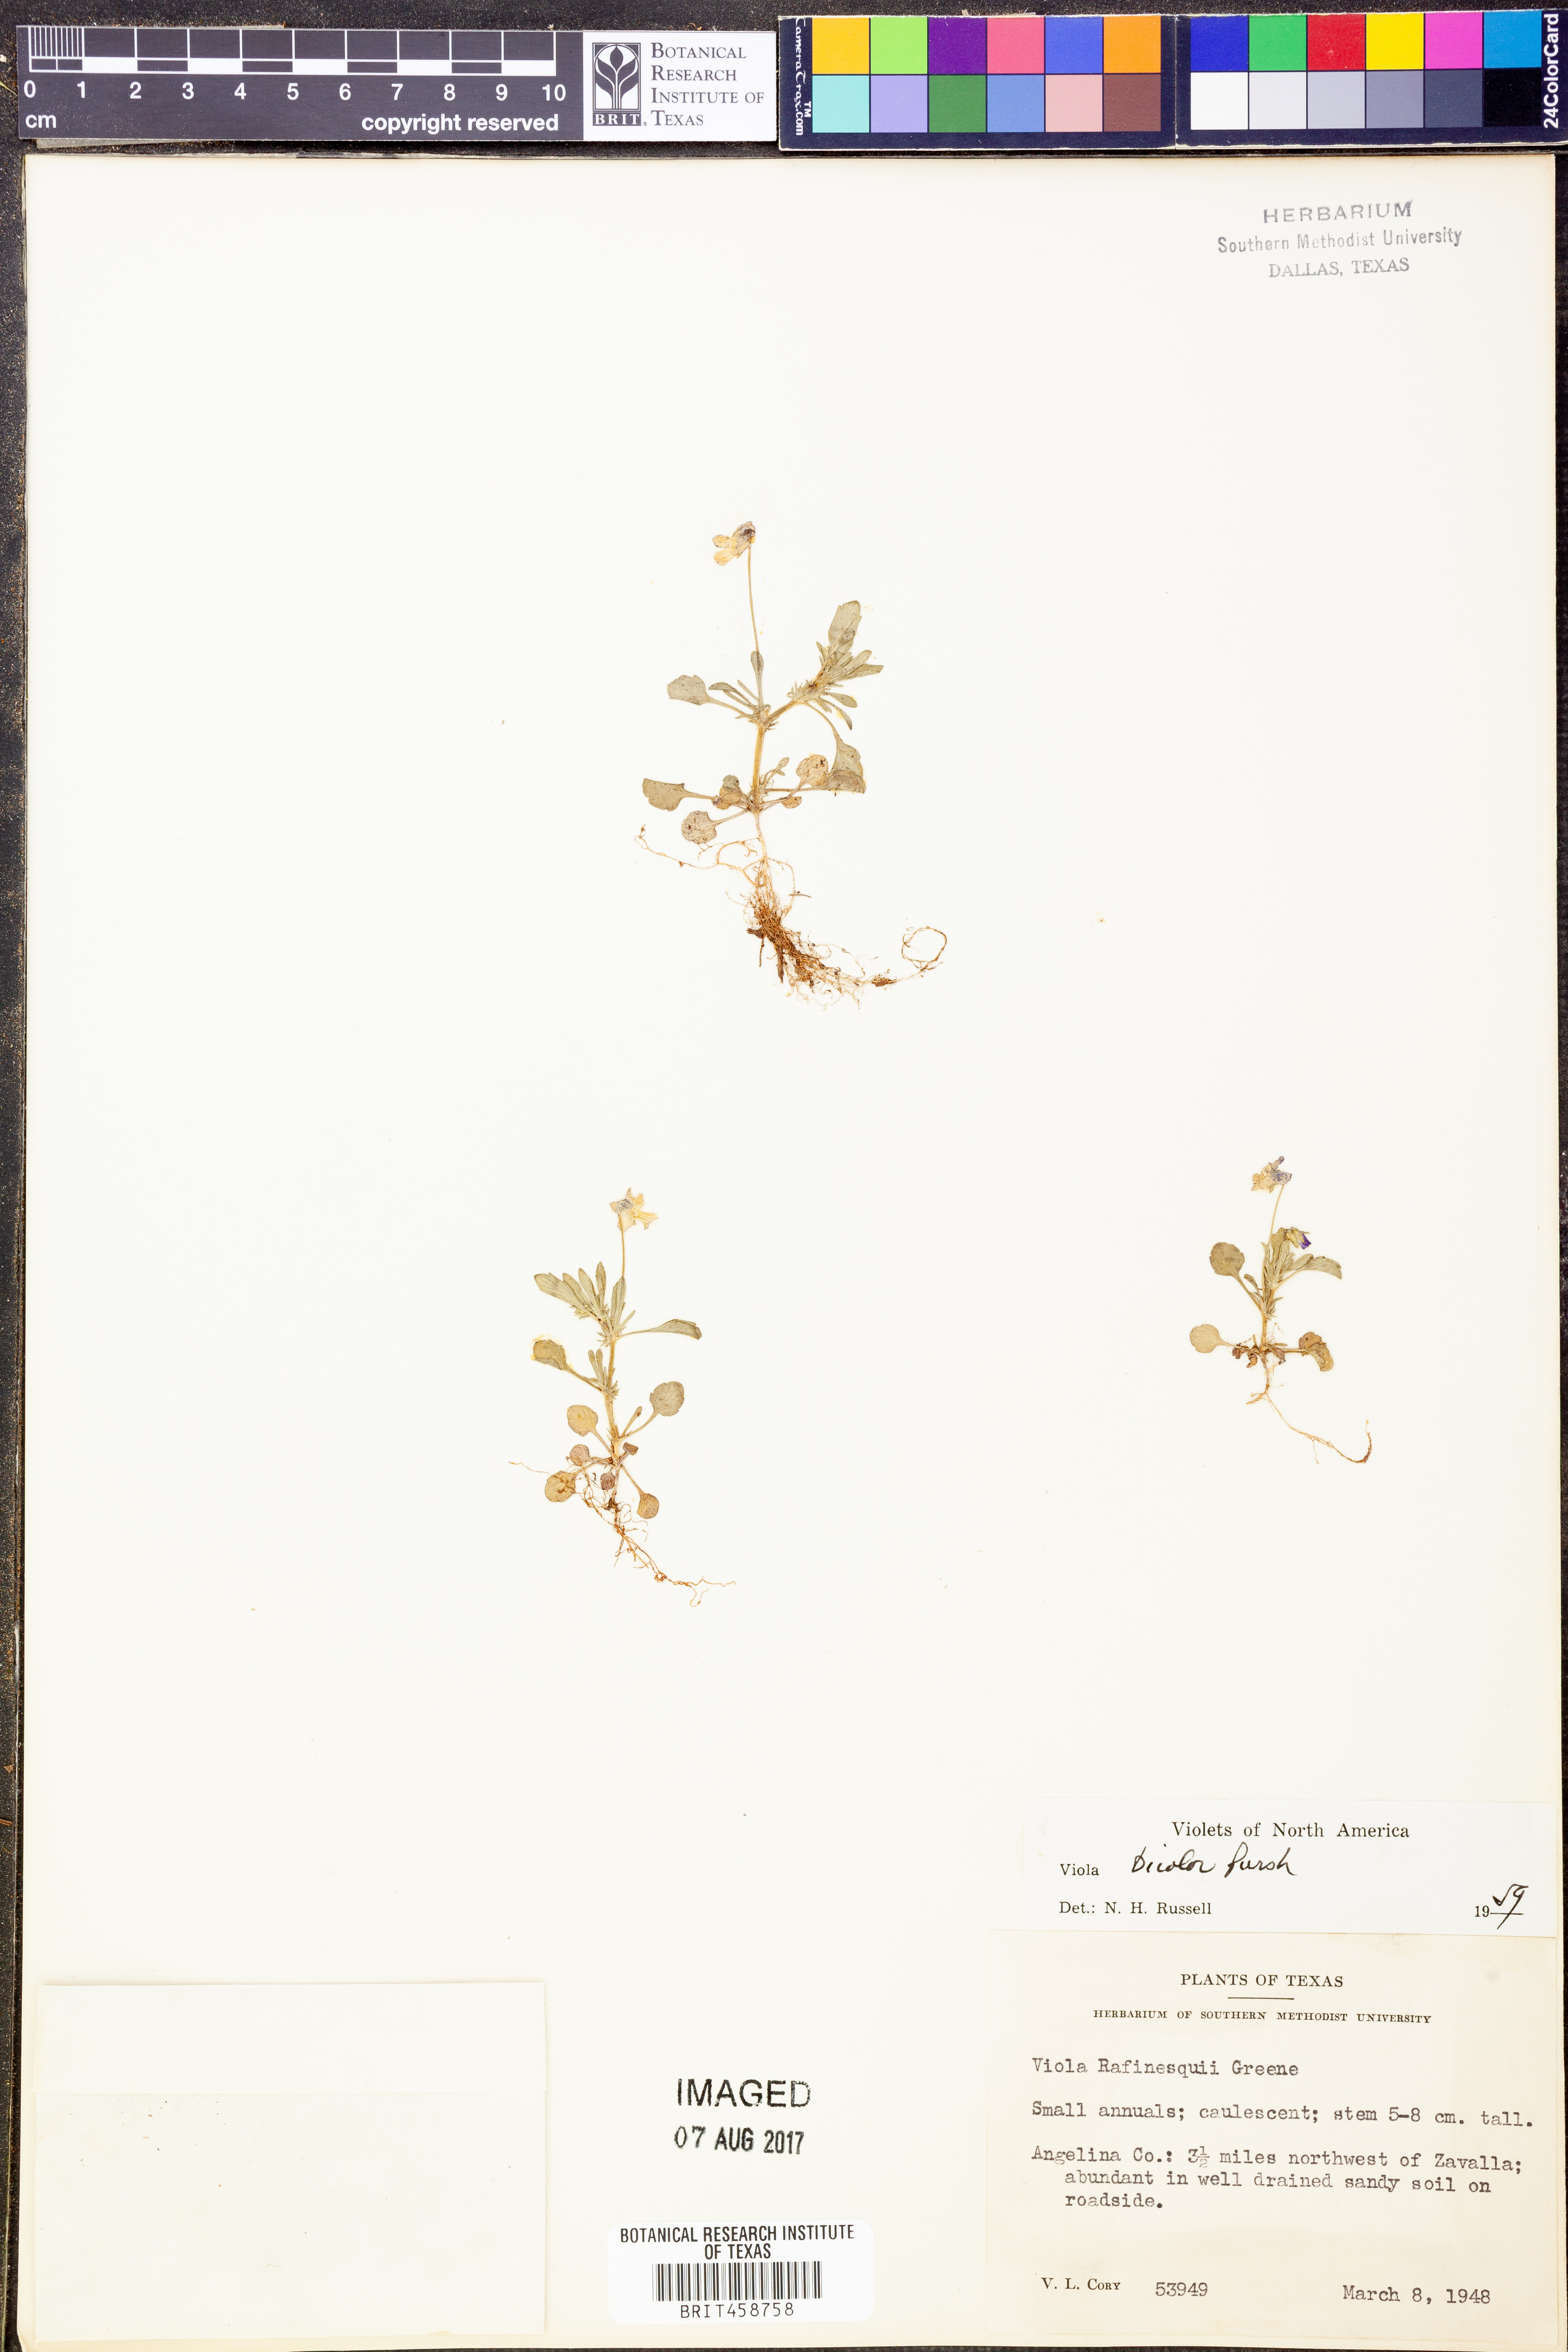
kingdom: Plantae
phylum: Tracheophyta
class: Magnoliopsida
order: Malpighiales
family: Violaceae
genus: Viola
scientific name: Viola rafinesquei
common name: American field pansy
